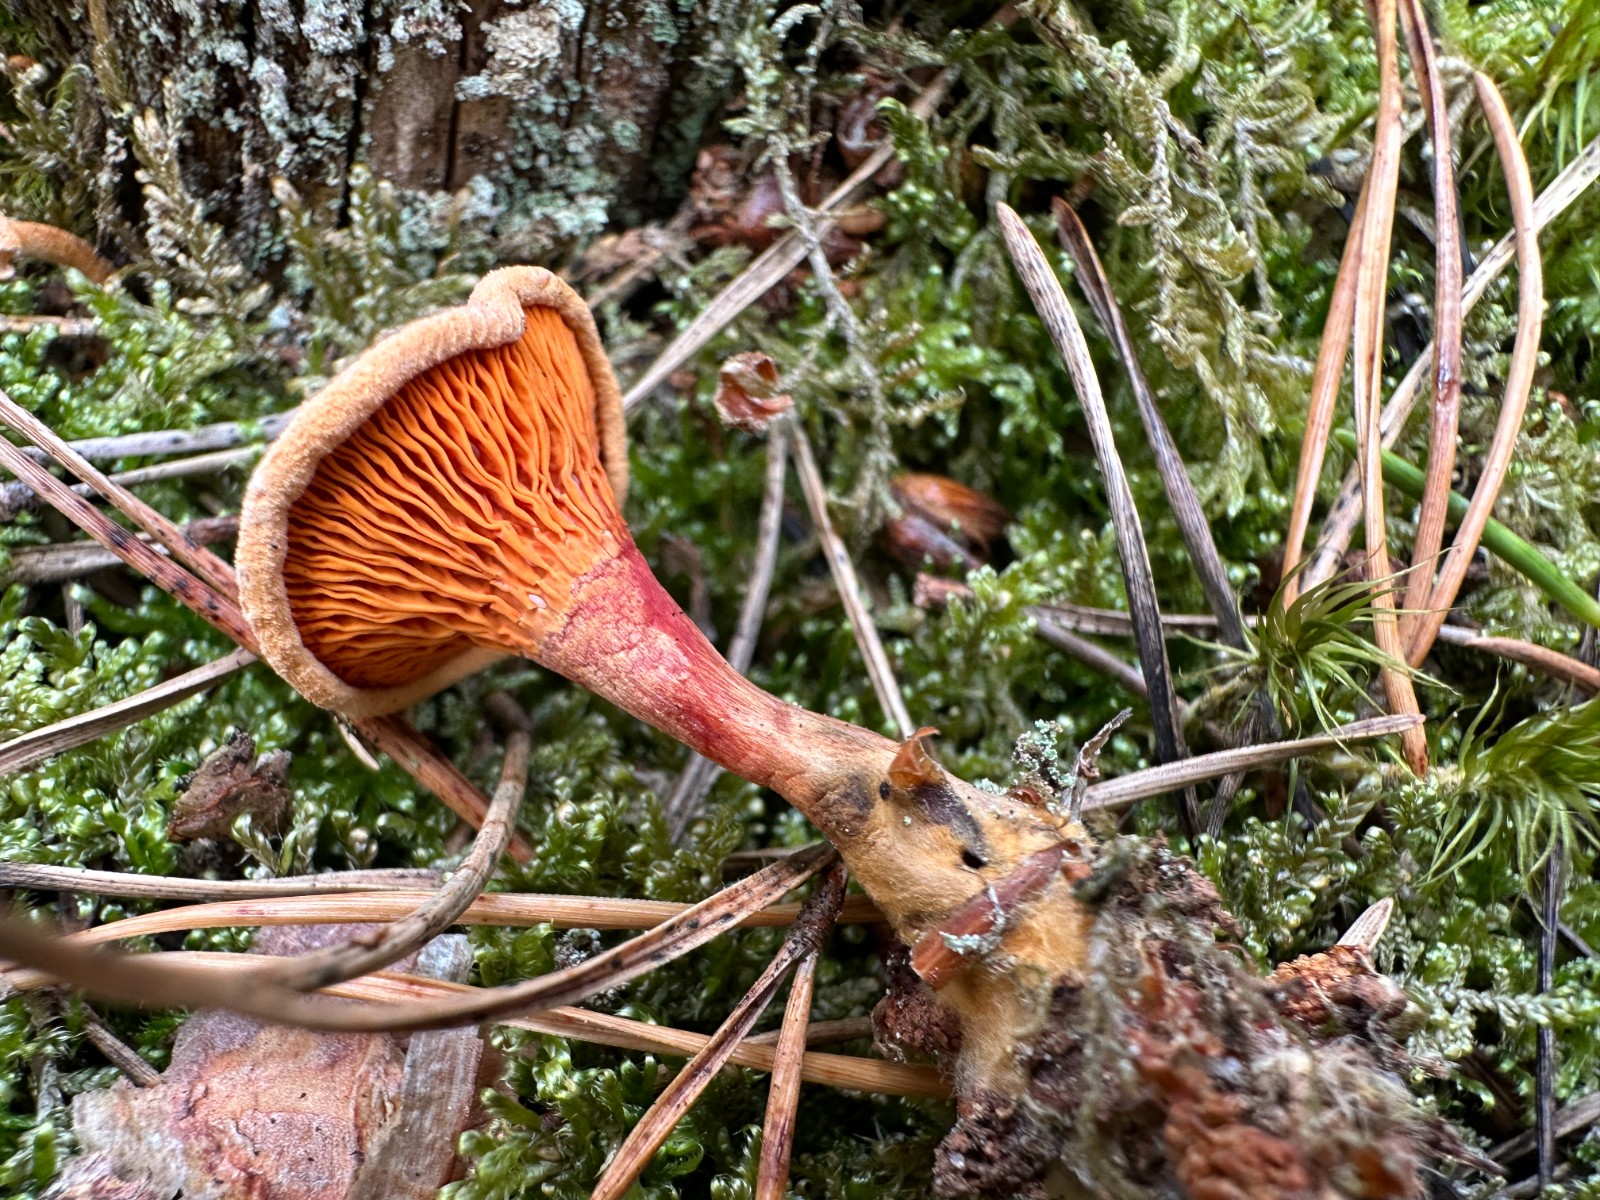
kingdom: Fungi
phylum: Basidiomycota
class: Agaricomycetes
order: Boletales
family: Hygrophoropsidaceae
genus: Hygrophoropsis
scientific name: Hygrophoropsis aurantiaca
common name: almindelig orangekantarel
